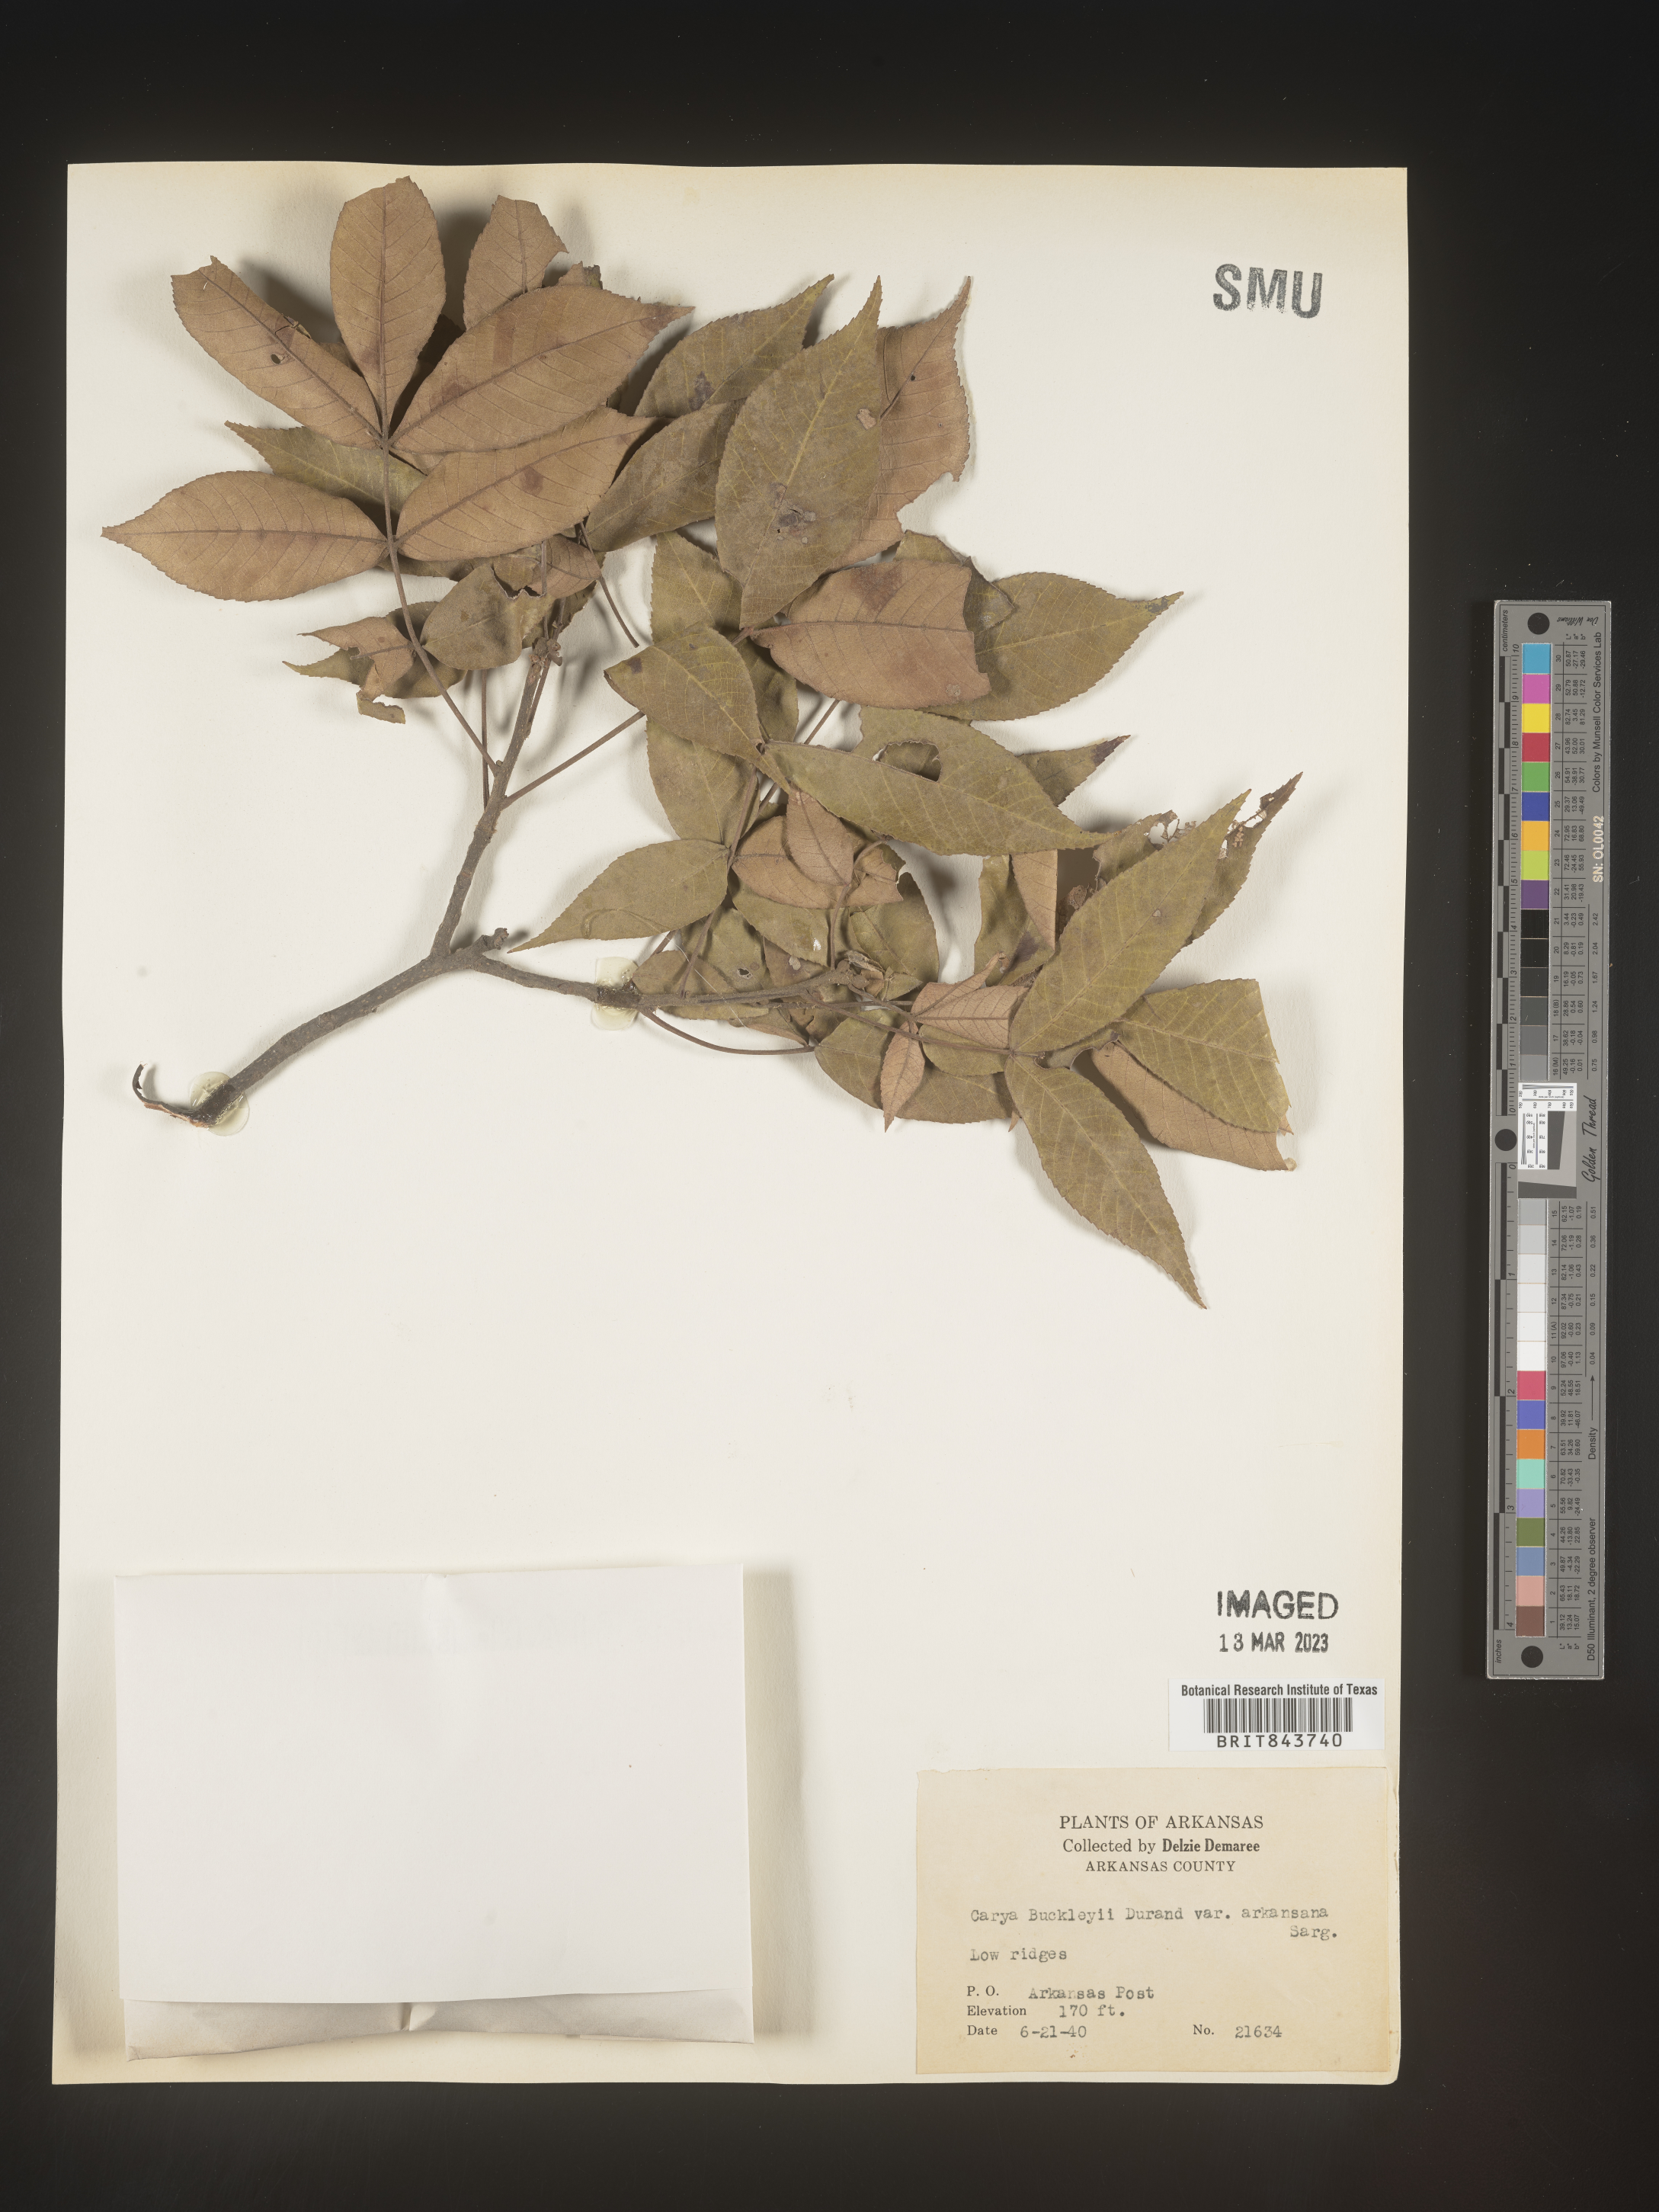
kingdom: Plantae
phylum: Tracheophyta
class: Magnoliopsida
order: Fagales
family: Juglandaceae
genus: Carya
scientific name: Carya texana
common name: Black hickory
